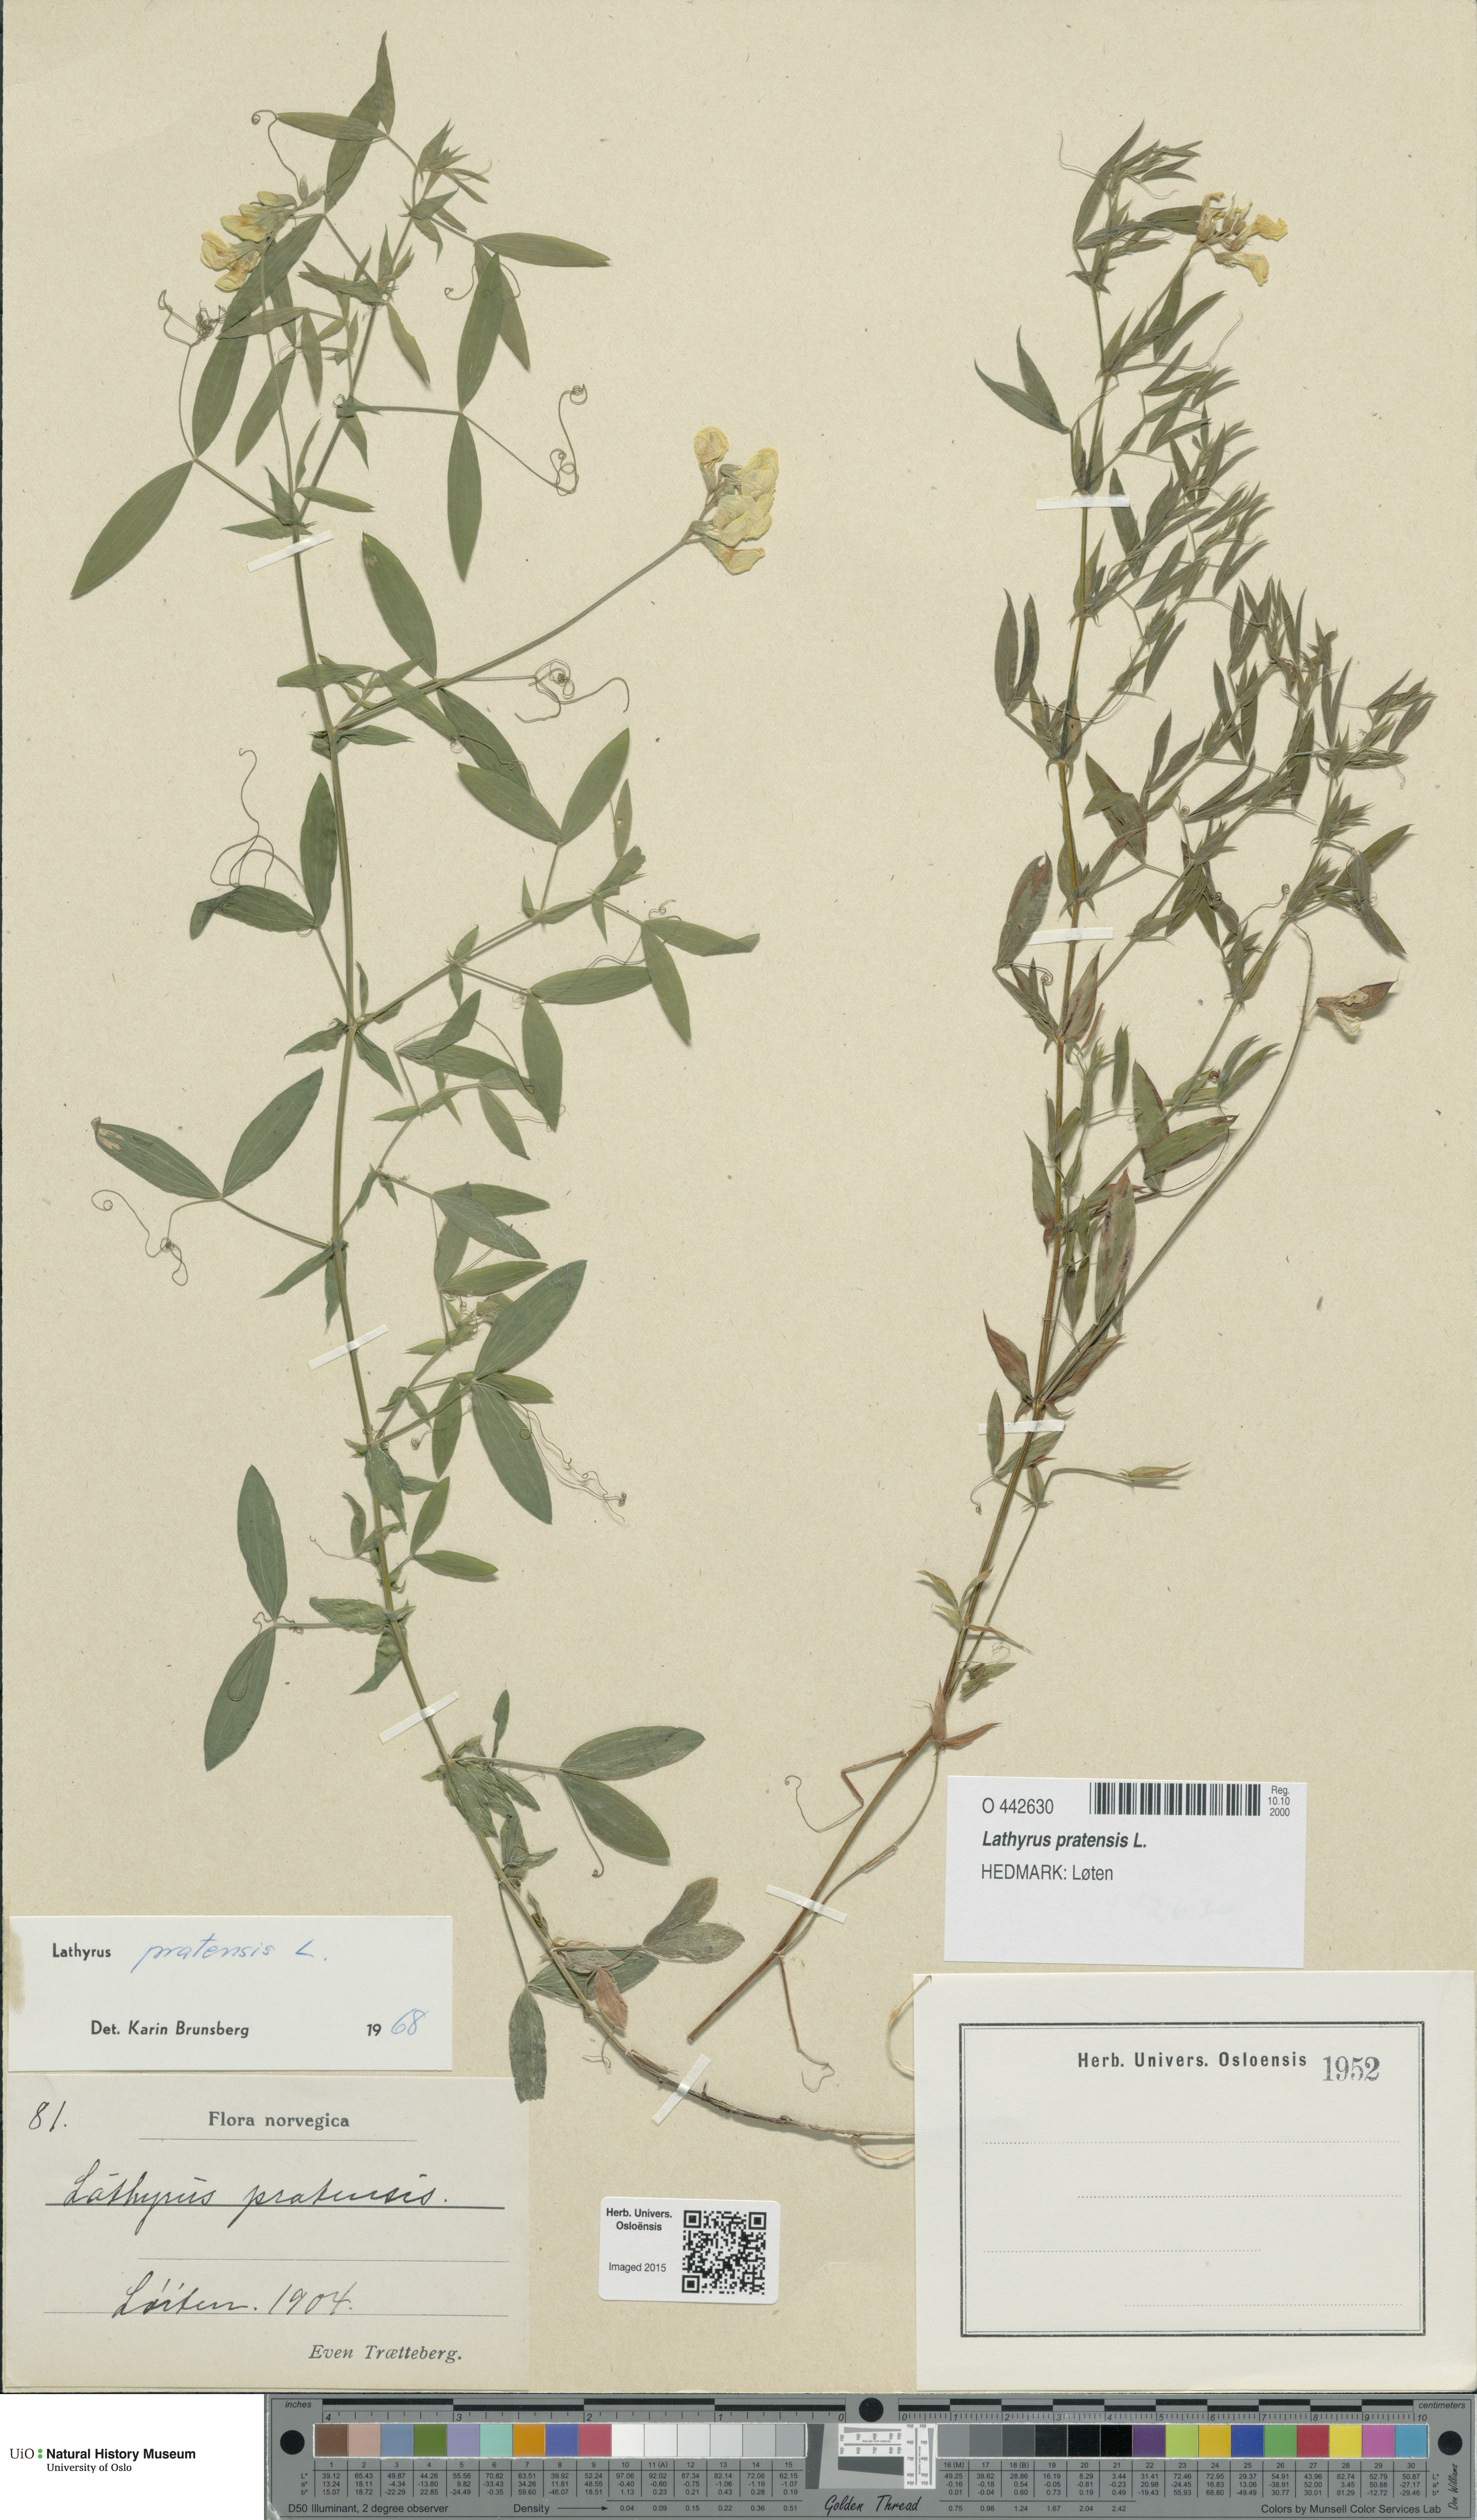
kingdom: Plantae
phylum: Tracheophyta
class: Magnoliopsida
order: Fabales
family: Fabaceae
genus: Lathyrus
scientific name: Lathyrus pratensis
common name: Meadow vetchling
